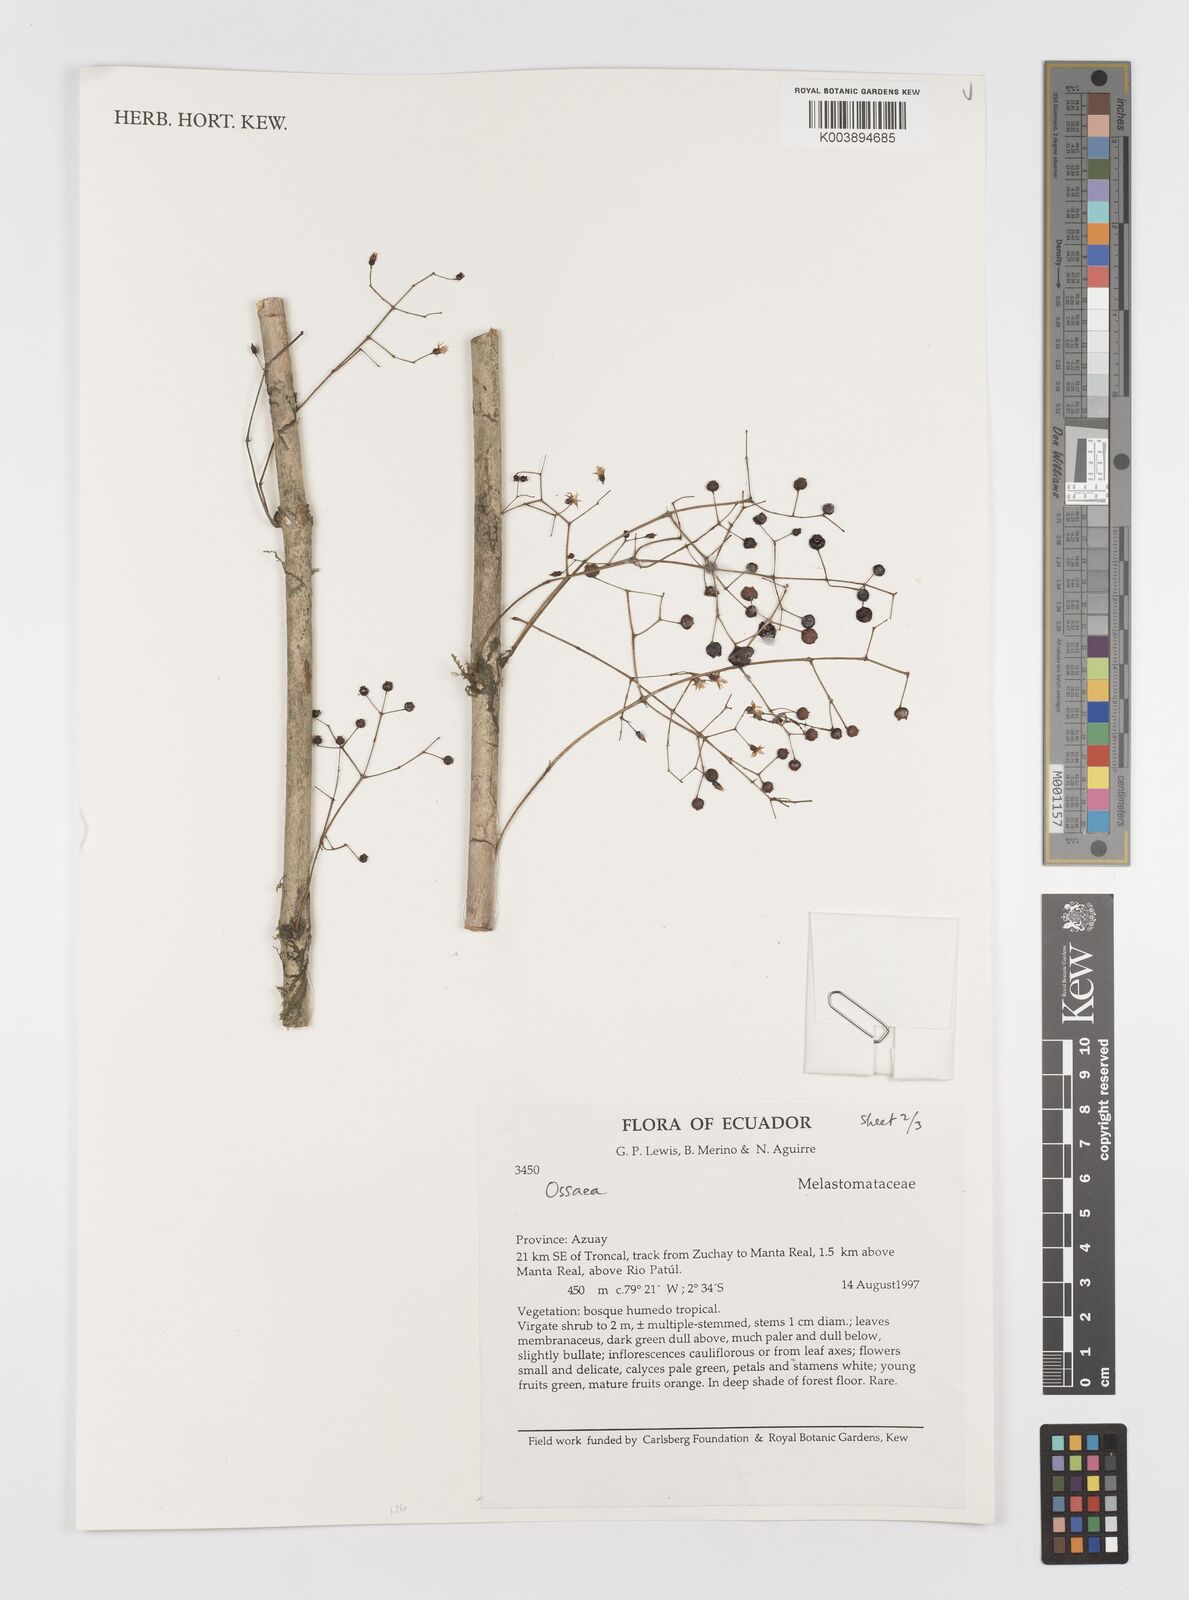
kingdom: Plantae
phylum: Tracheophyta
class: Magnoliopsida
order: Myrtales
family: Melastomataceae
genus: Ossaea
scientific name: Ossaea
